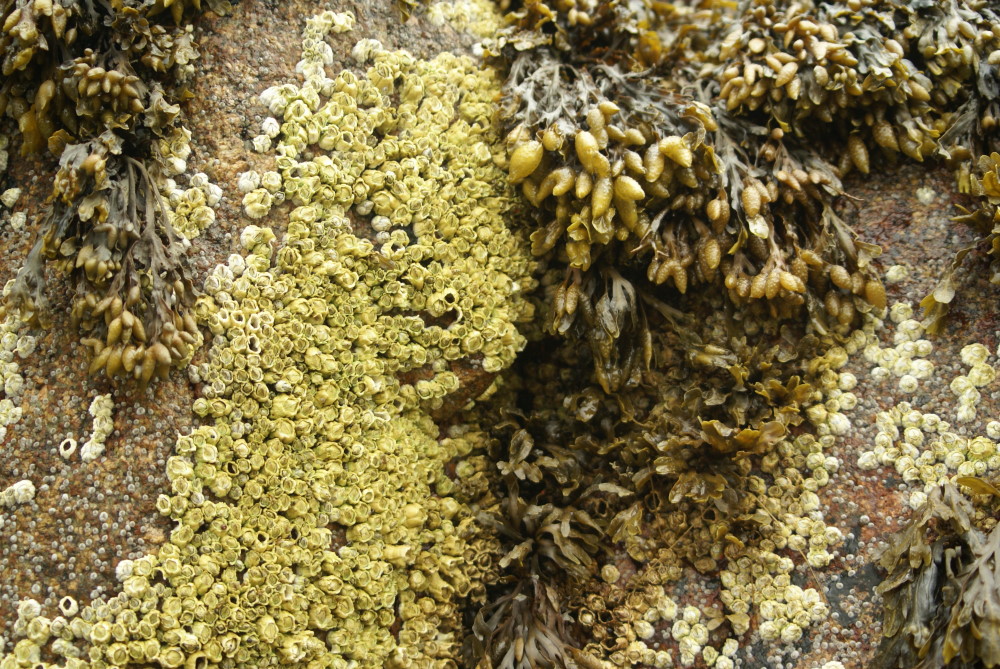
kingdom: Plantae
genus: Fucus
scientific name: Fucus
